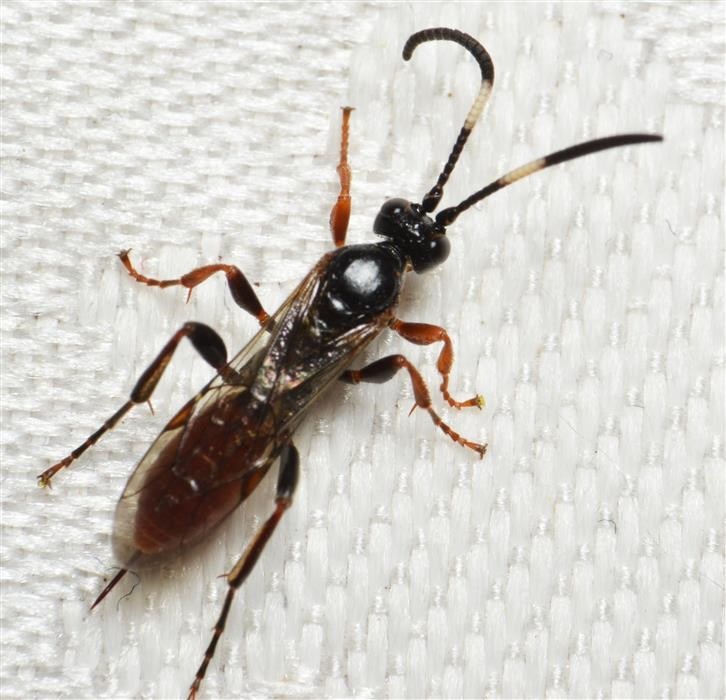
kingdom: Animalia
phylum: Arthropoda
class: Insecta
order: Hymenoptera
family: Ichneumonidae
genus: Crypteffigies
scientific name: Crypteffigies lanius
